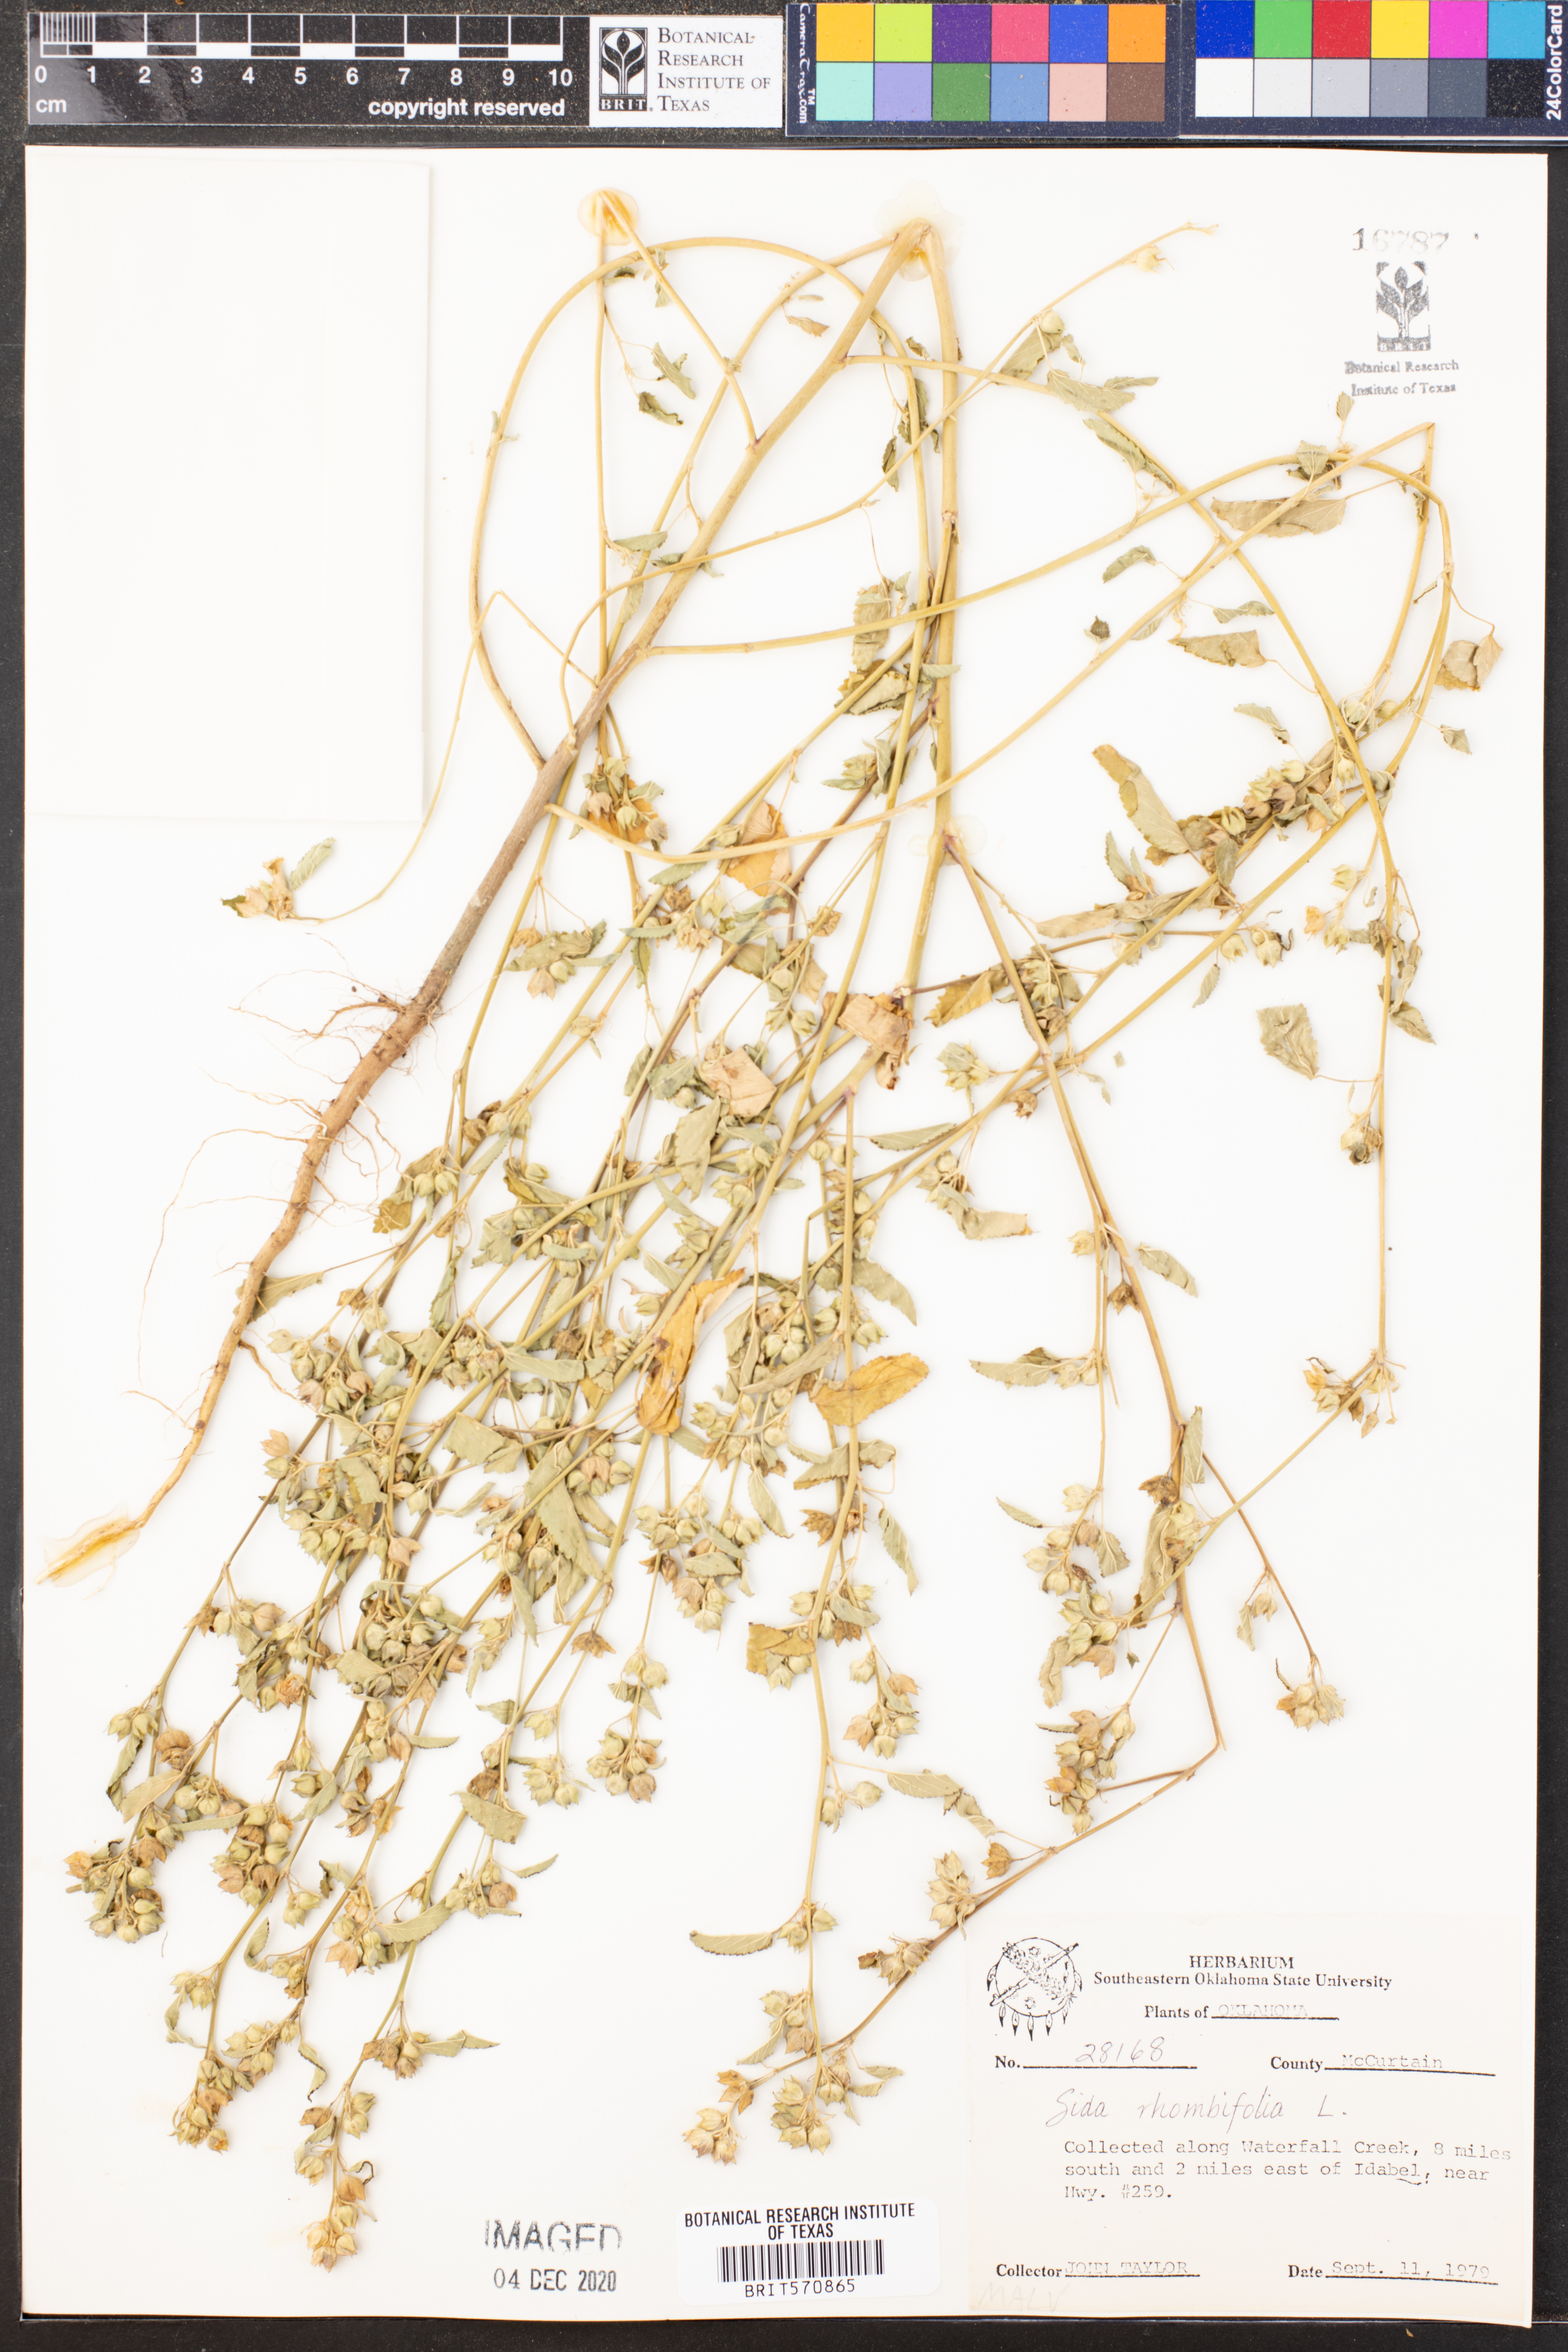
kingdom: Plantae
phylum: Tracheophyta
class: Magnoliopsida
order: Malvales
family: Malvaceae
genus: Sida
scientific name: Sida rhombifolia
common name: Queensland-hemp
